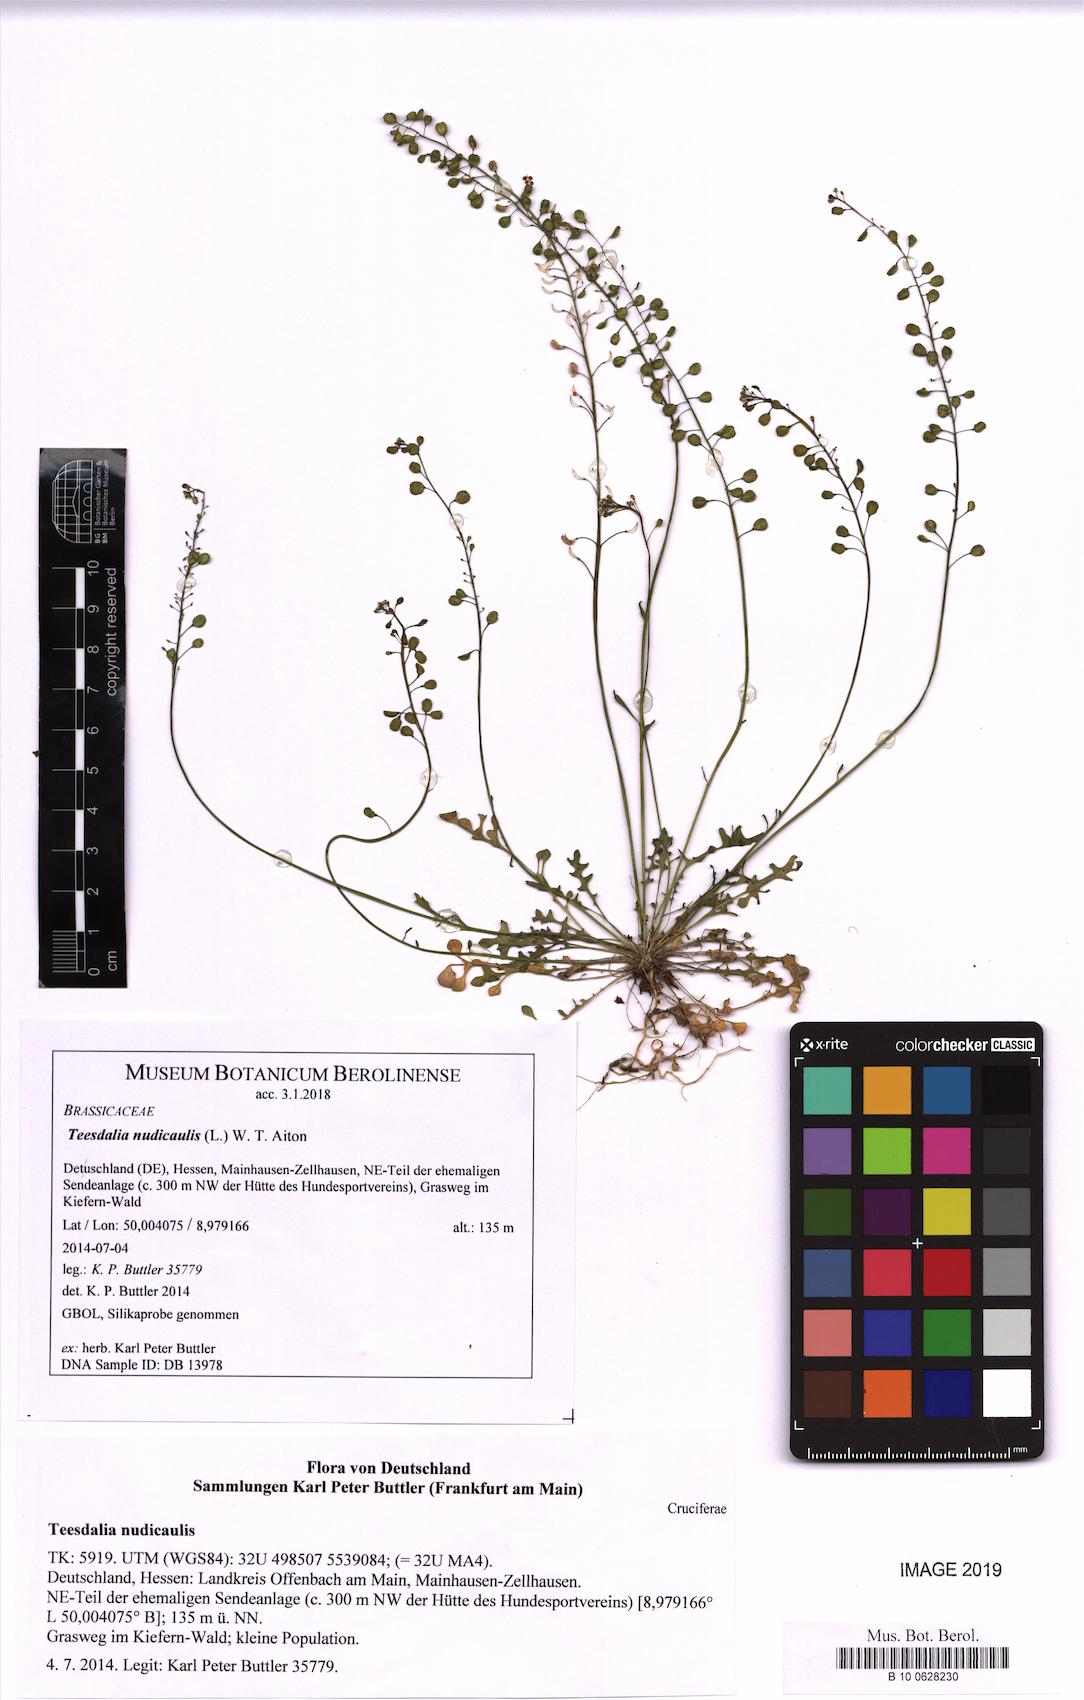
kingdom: Plantae
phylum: Tracheophyta
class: Magnoliopsida
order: Brassicales
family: Brassicaceae
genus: Teesdalia
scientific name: Teesdalia nudicaulis
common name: Shepherd's cress
